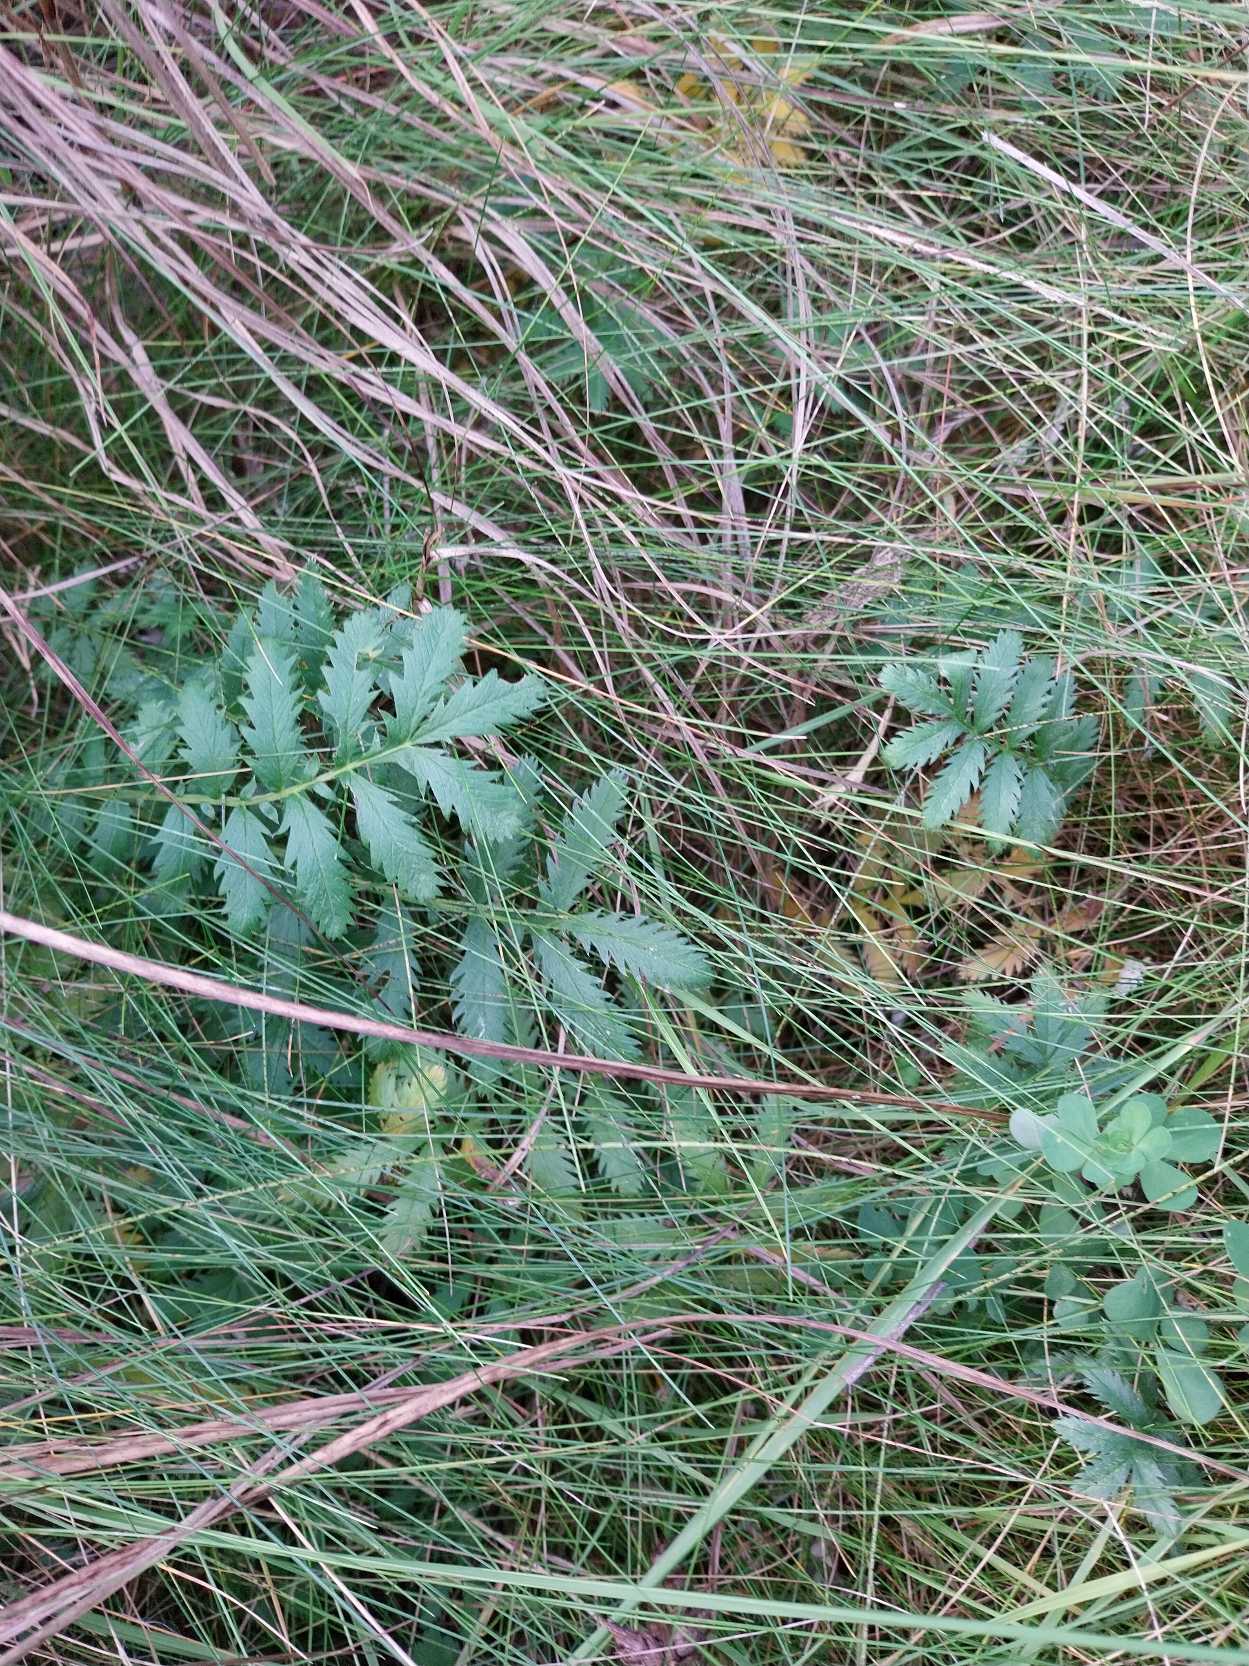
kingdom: Plantae
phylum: Tracheophyta
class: Magnoliopsida
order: Rosales
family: Rosaceae
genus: Argentina
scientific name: Argentina anserina
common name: Gåsepotentil
